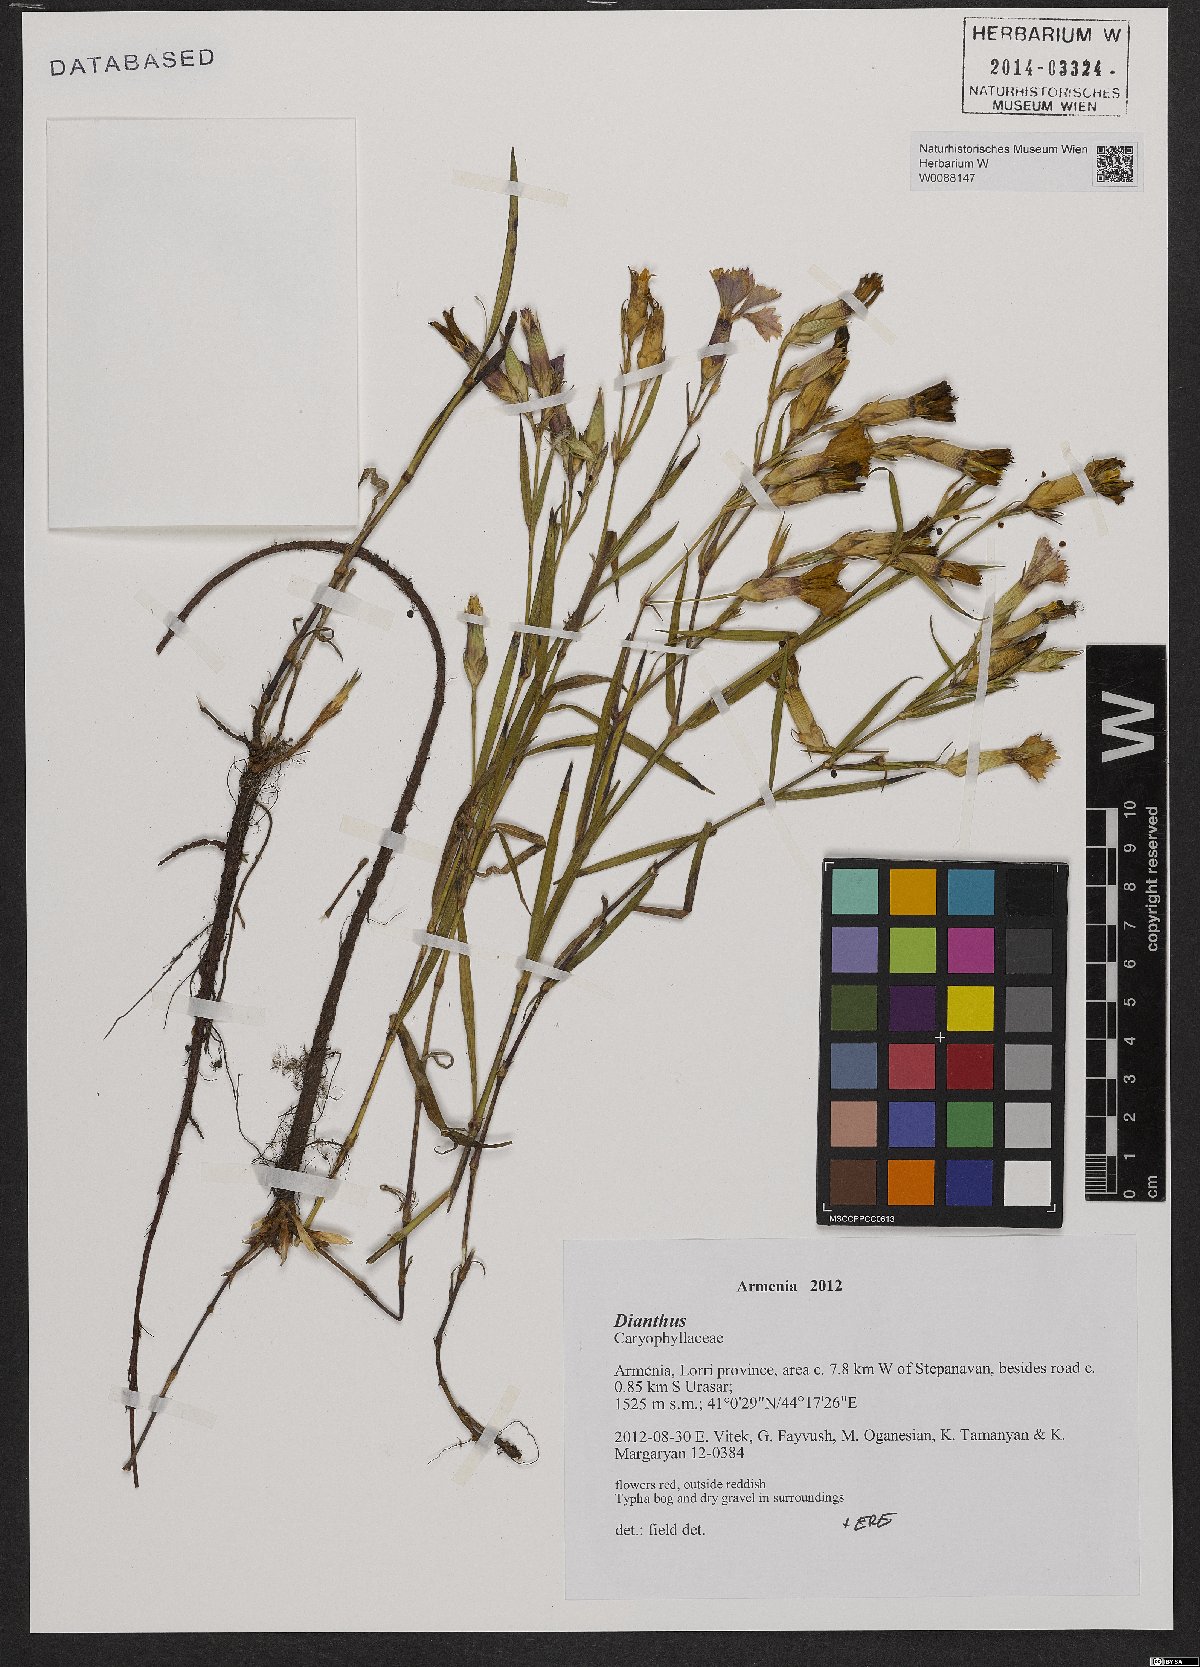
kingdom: Plantae
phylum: Tracheophyta
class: Magnoliopsida
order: Caryophyllales
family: Caryophyllaceae
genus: Dianthus
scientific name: Dianthus
